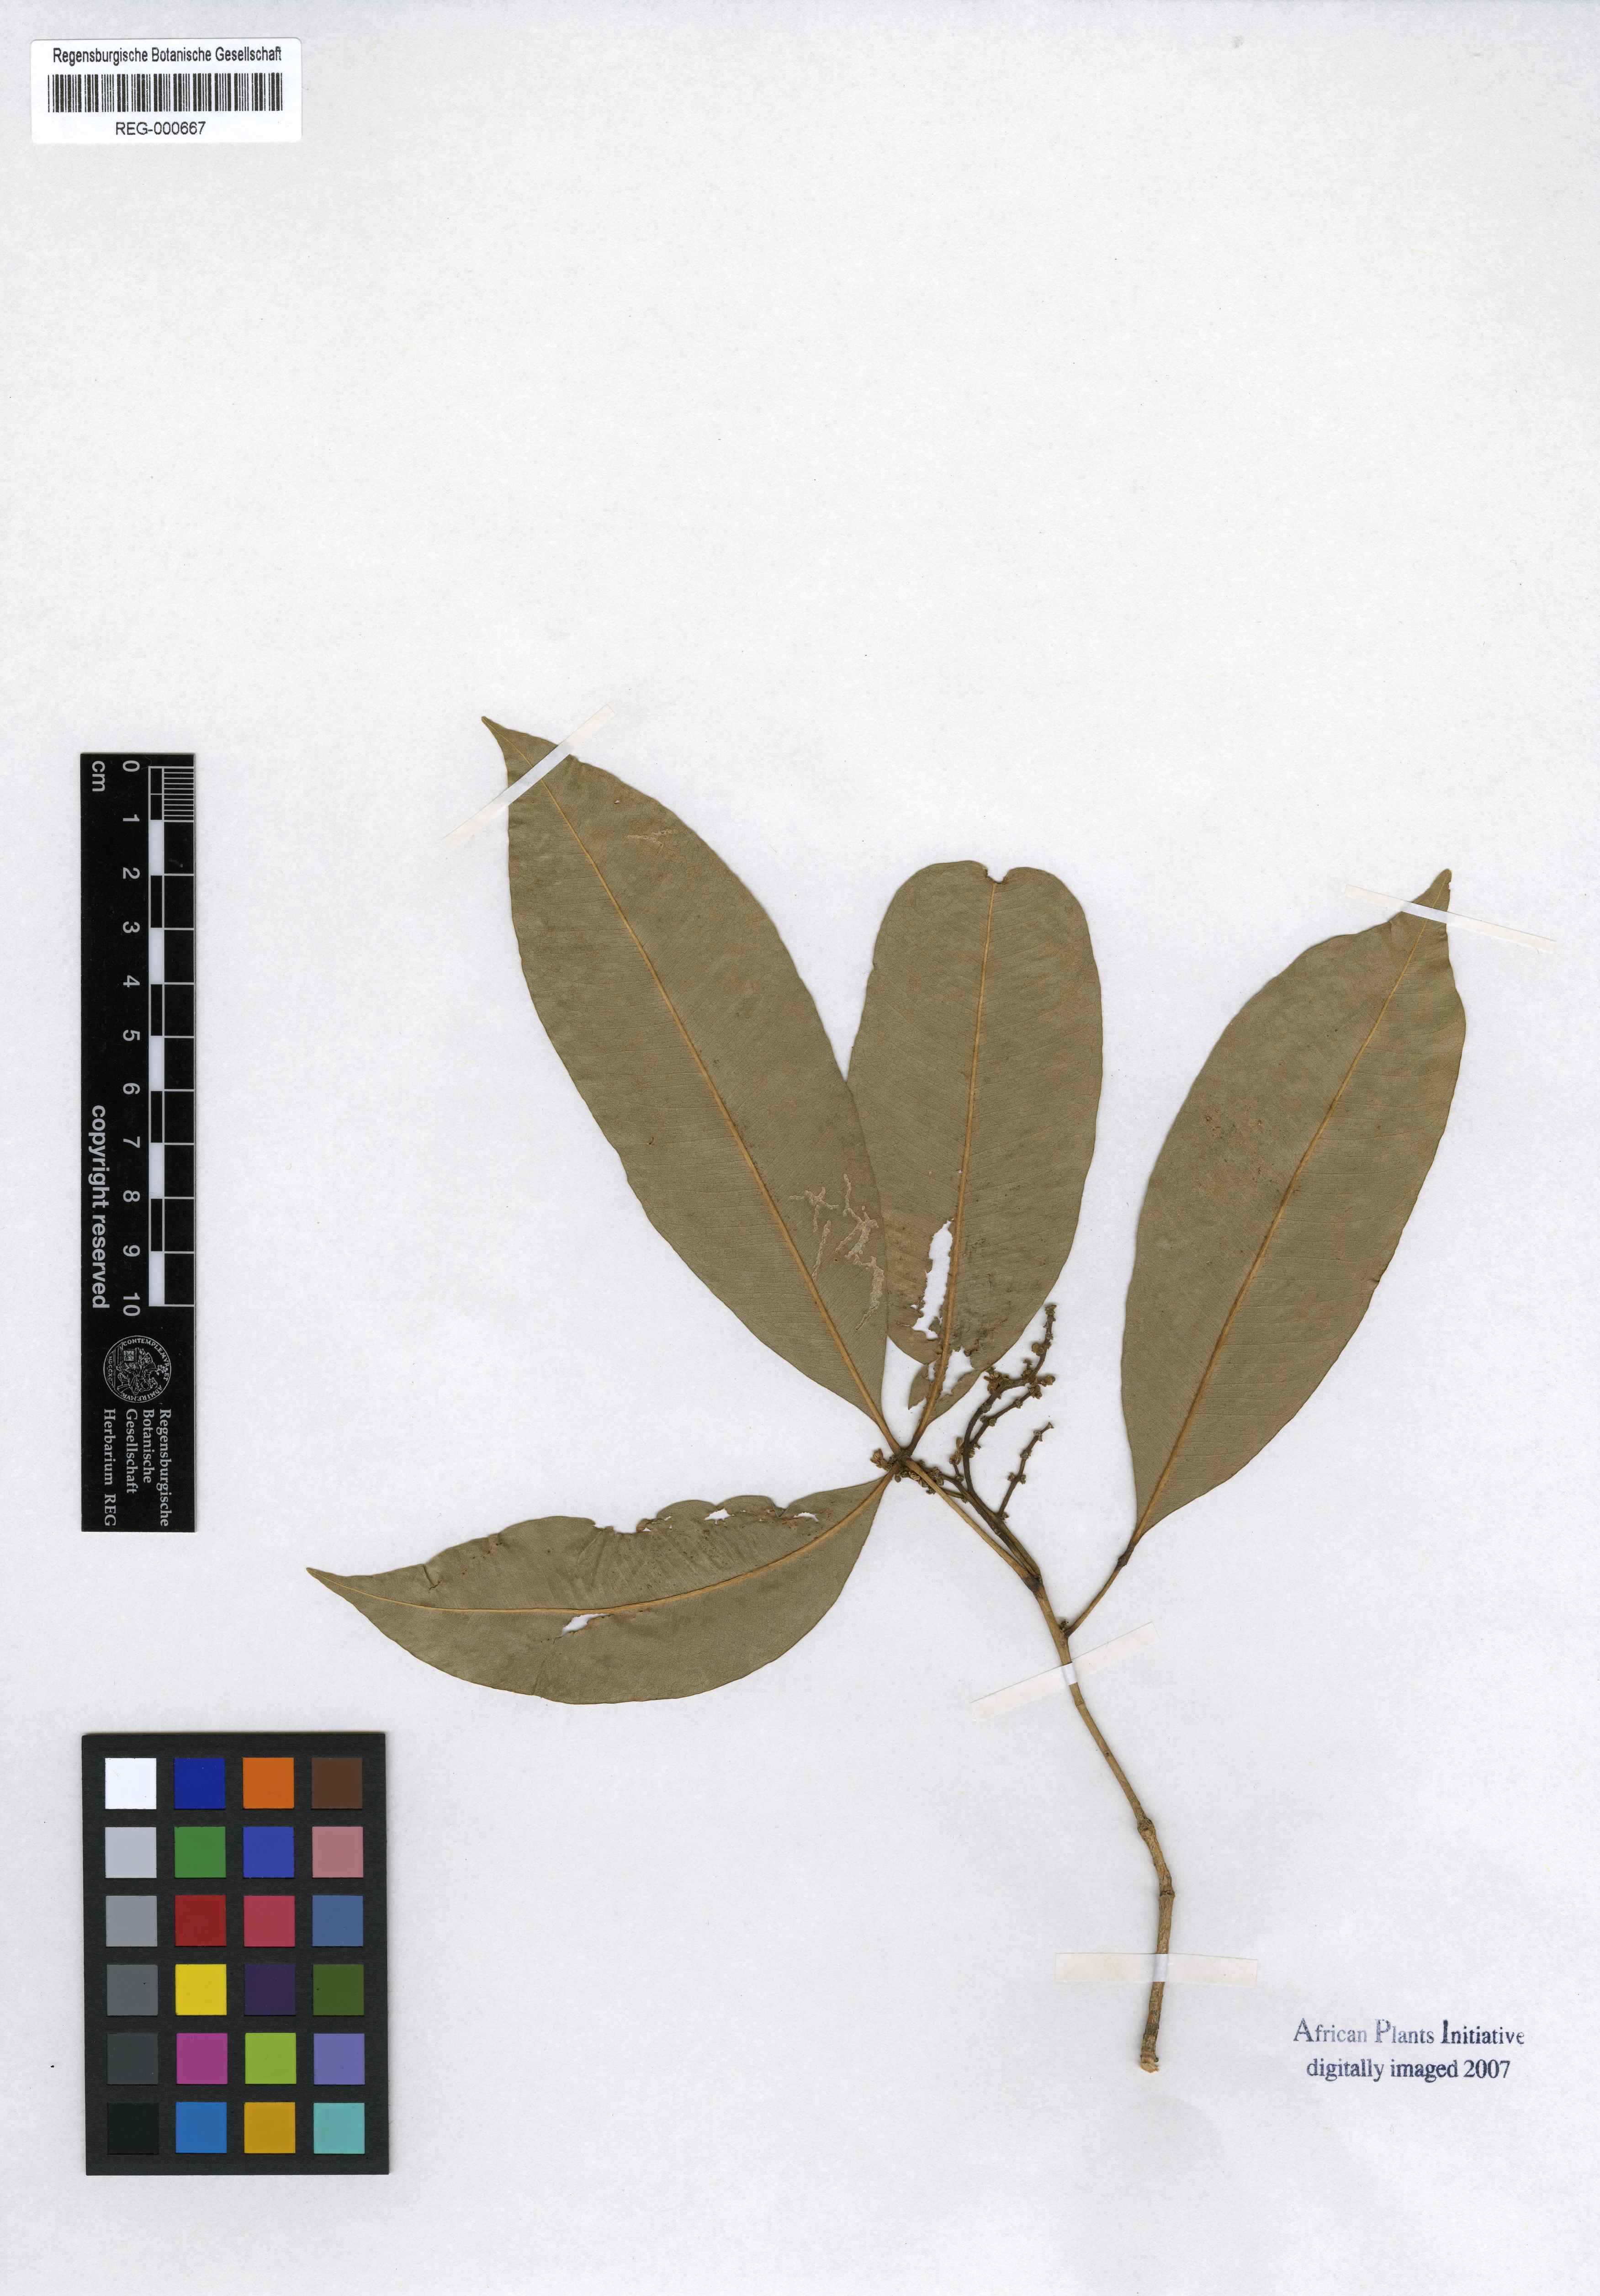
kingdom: Plantae
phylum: Tracheophyta
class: Magnoliopsida
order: Sapindales
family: Rutaceae
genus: Vepris
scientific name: Vepris nobilis
